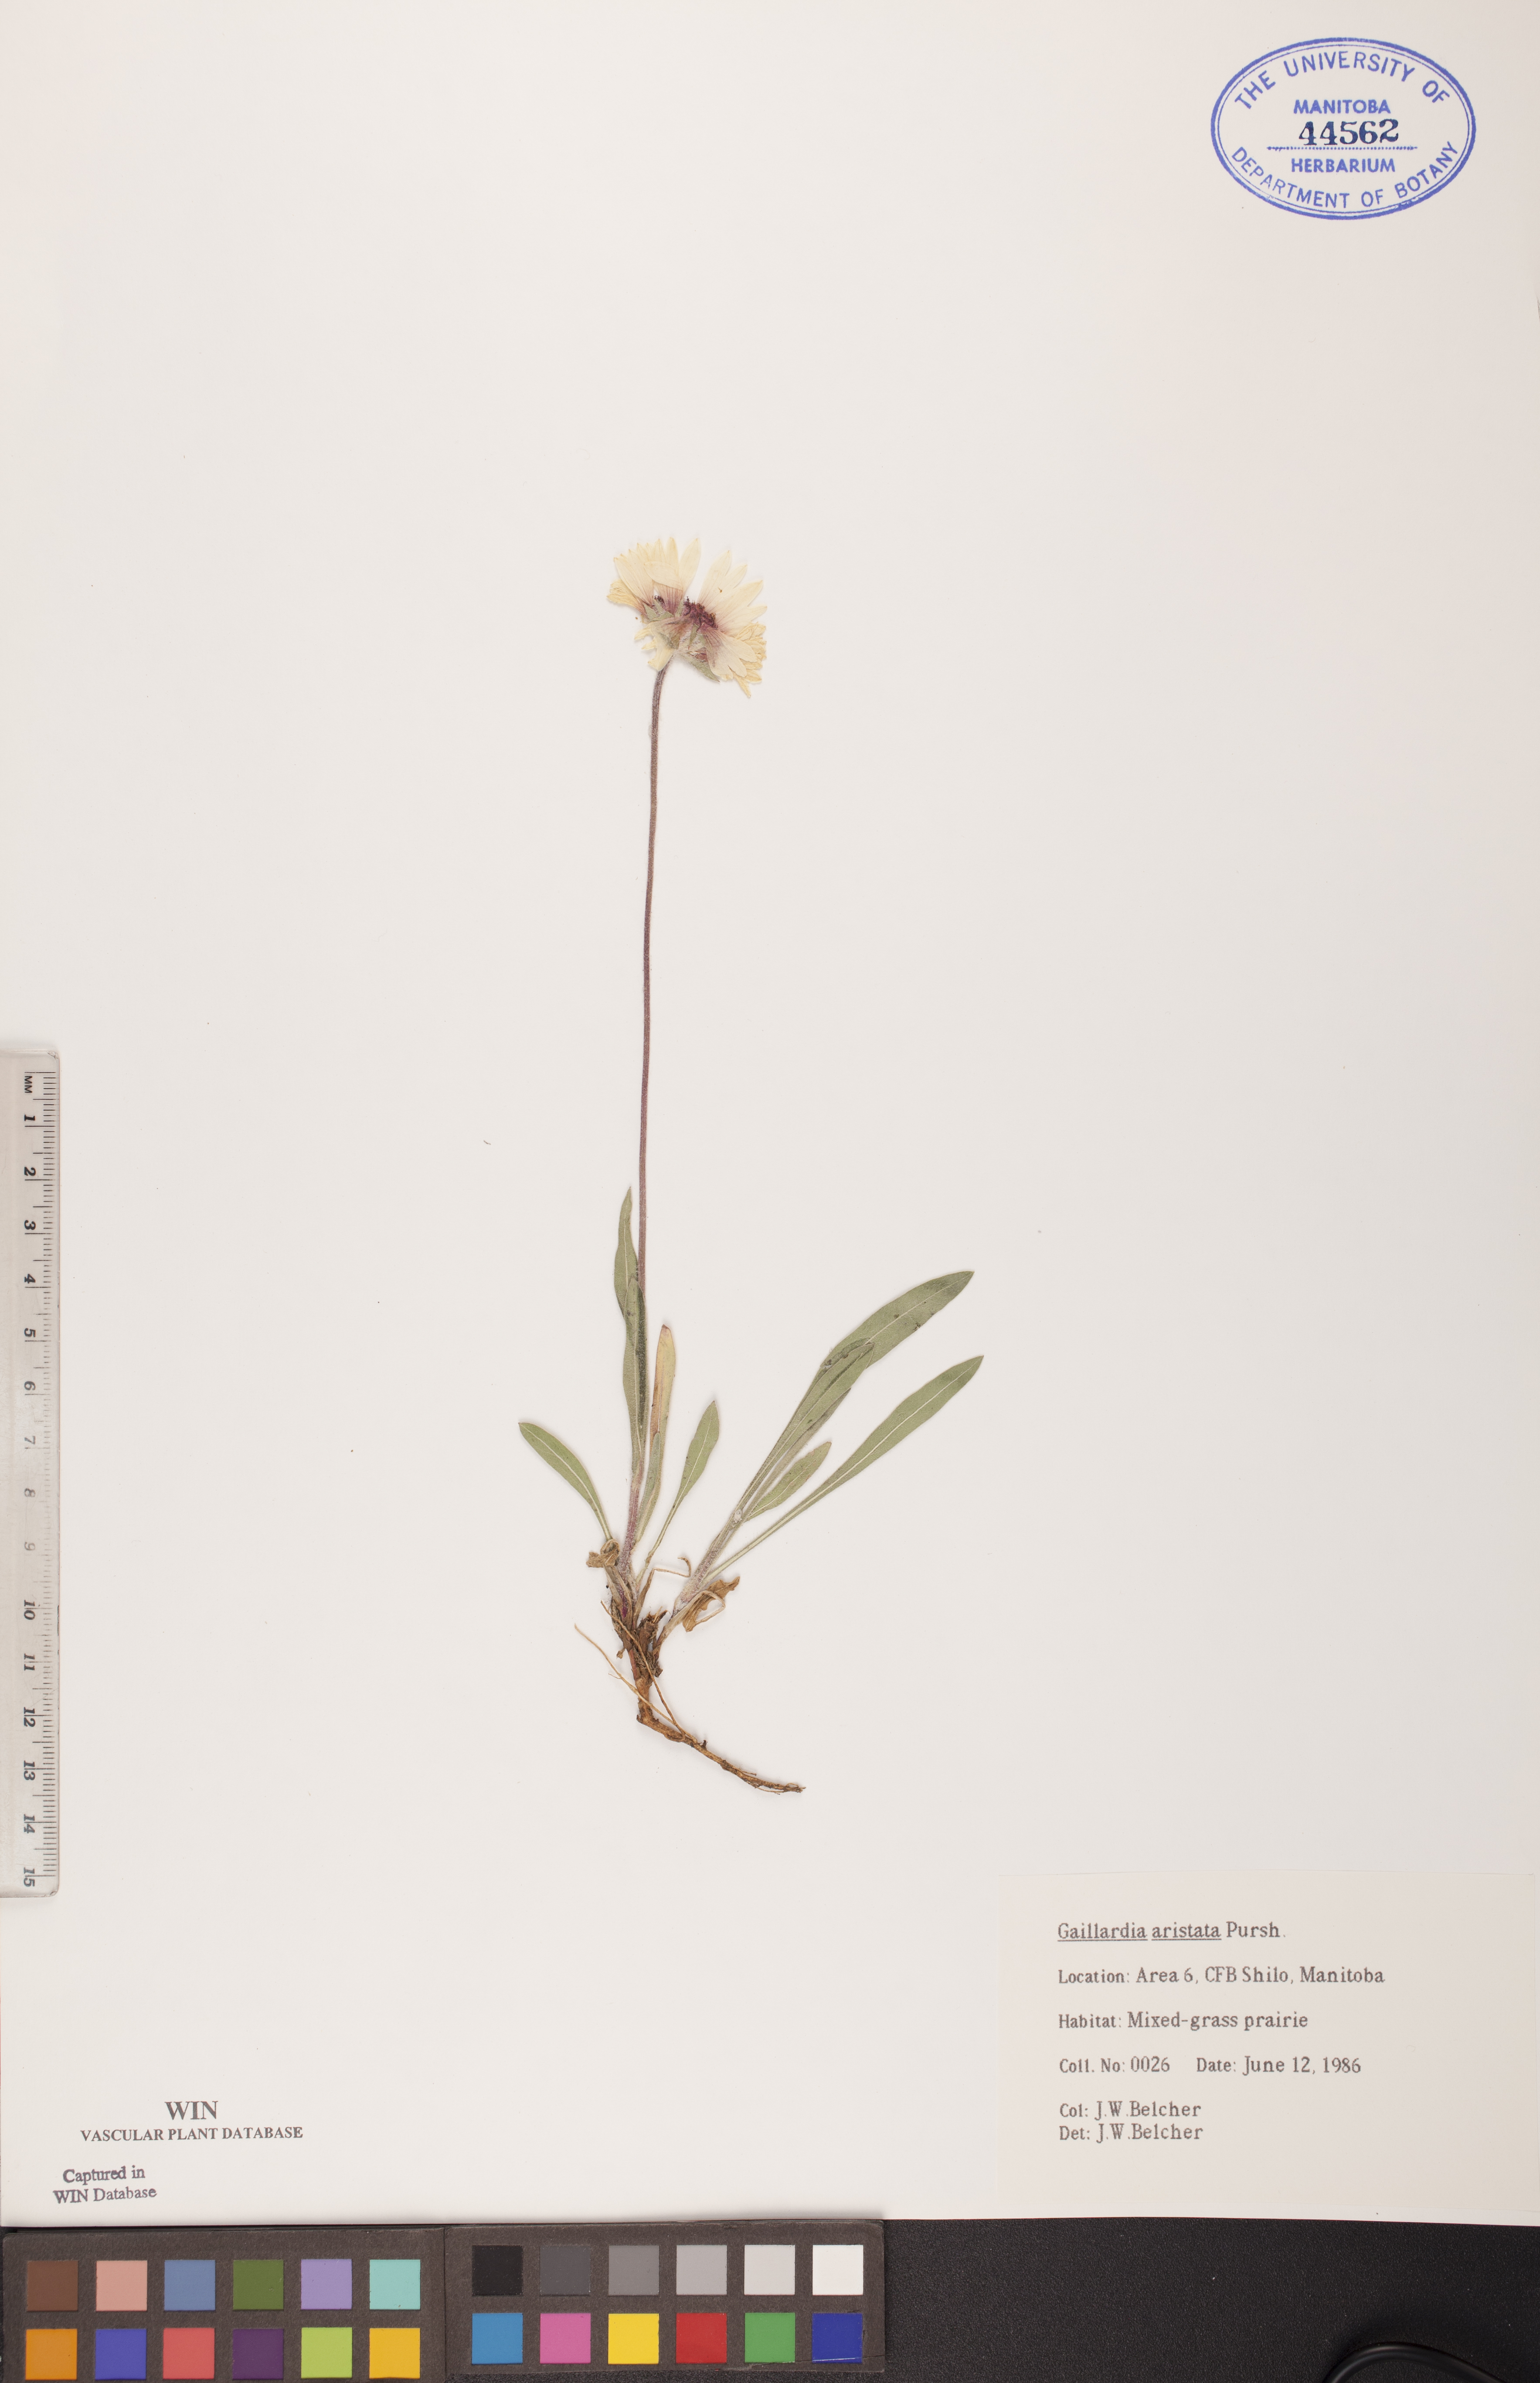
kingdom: Plantae
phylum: Tracheophyta
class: Magnoliopsida
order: Asterales
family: Asteraceae
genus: Gaillardia
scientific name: Gaillardia aristata
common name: Blanket-flower
